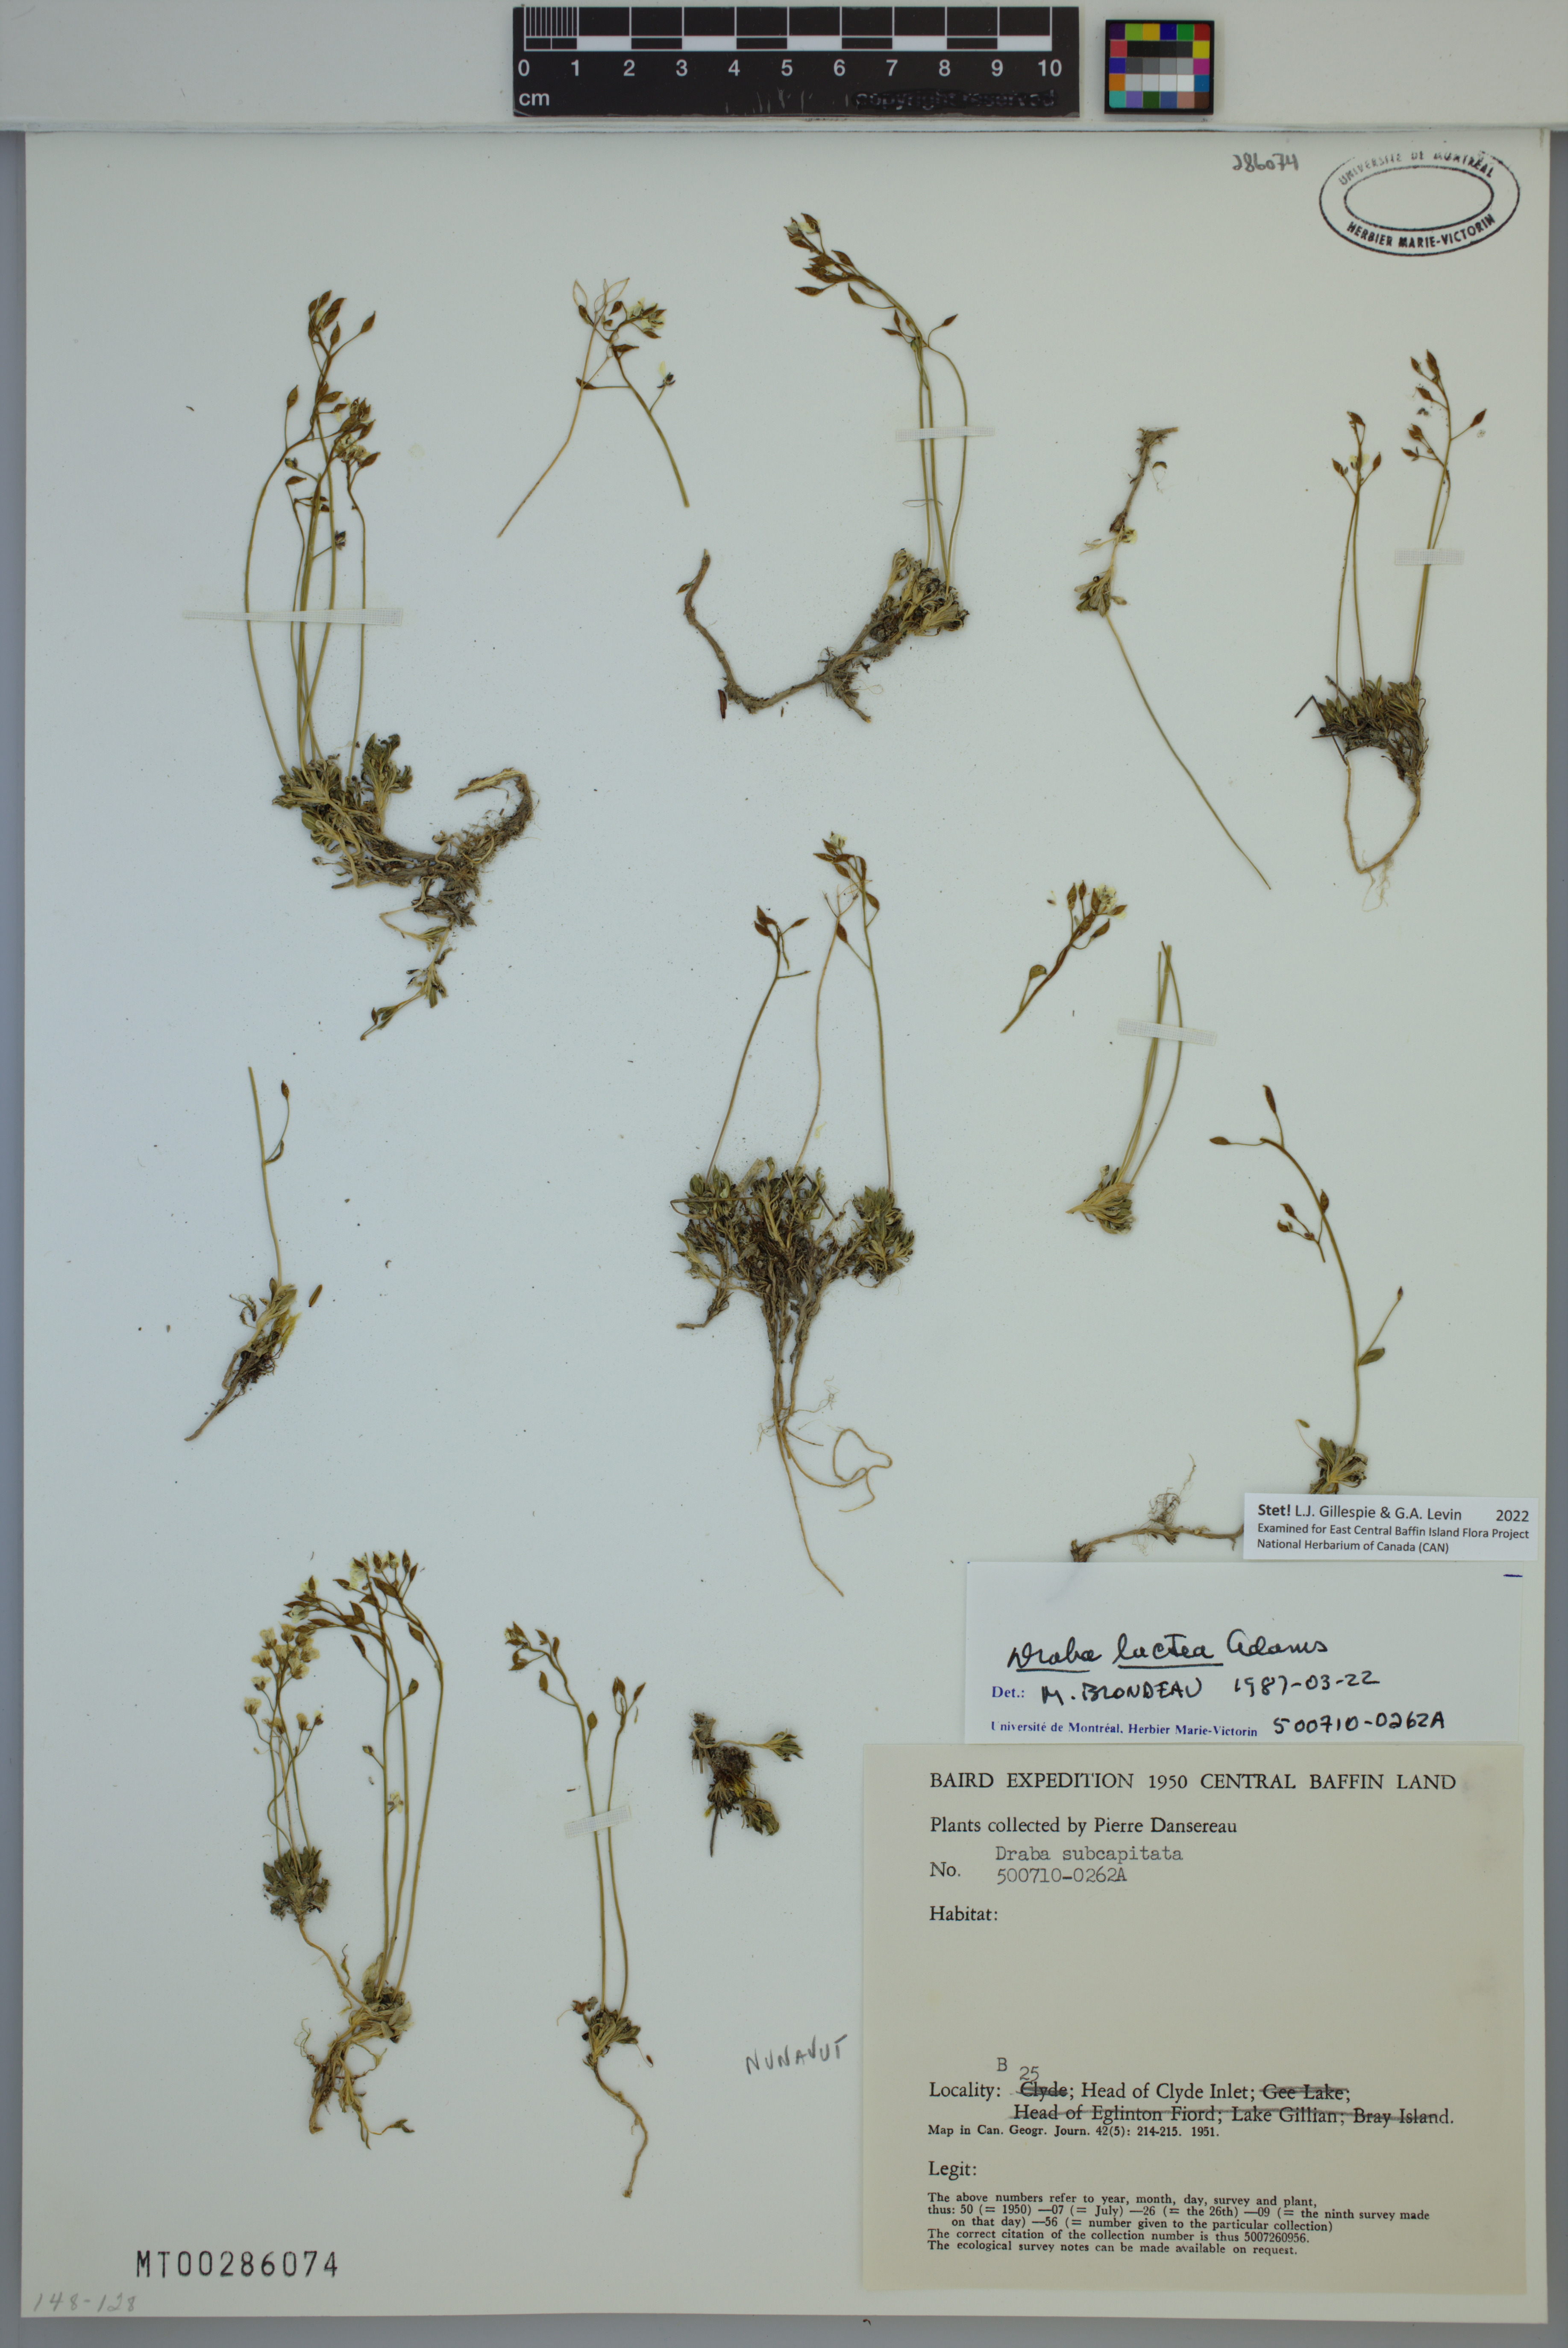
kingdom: Plantae
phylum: Tracheophyta
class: Magnoliopsida
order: Brassicales
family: Brassicaceae
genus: Draba
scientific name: Draba lactea
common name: Milky draba
